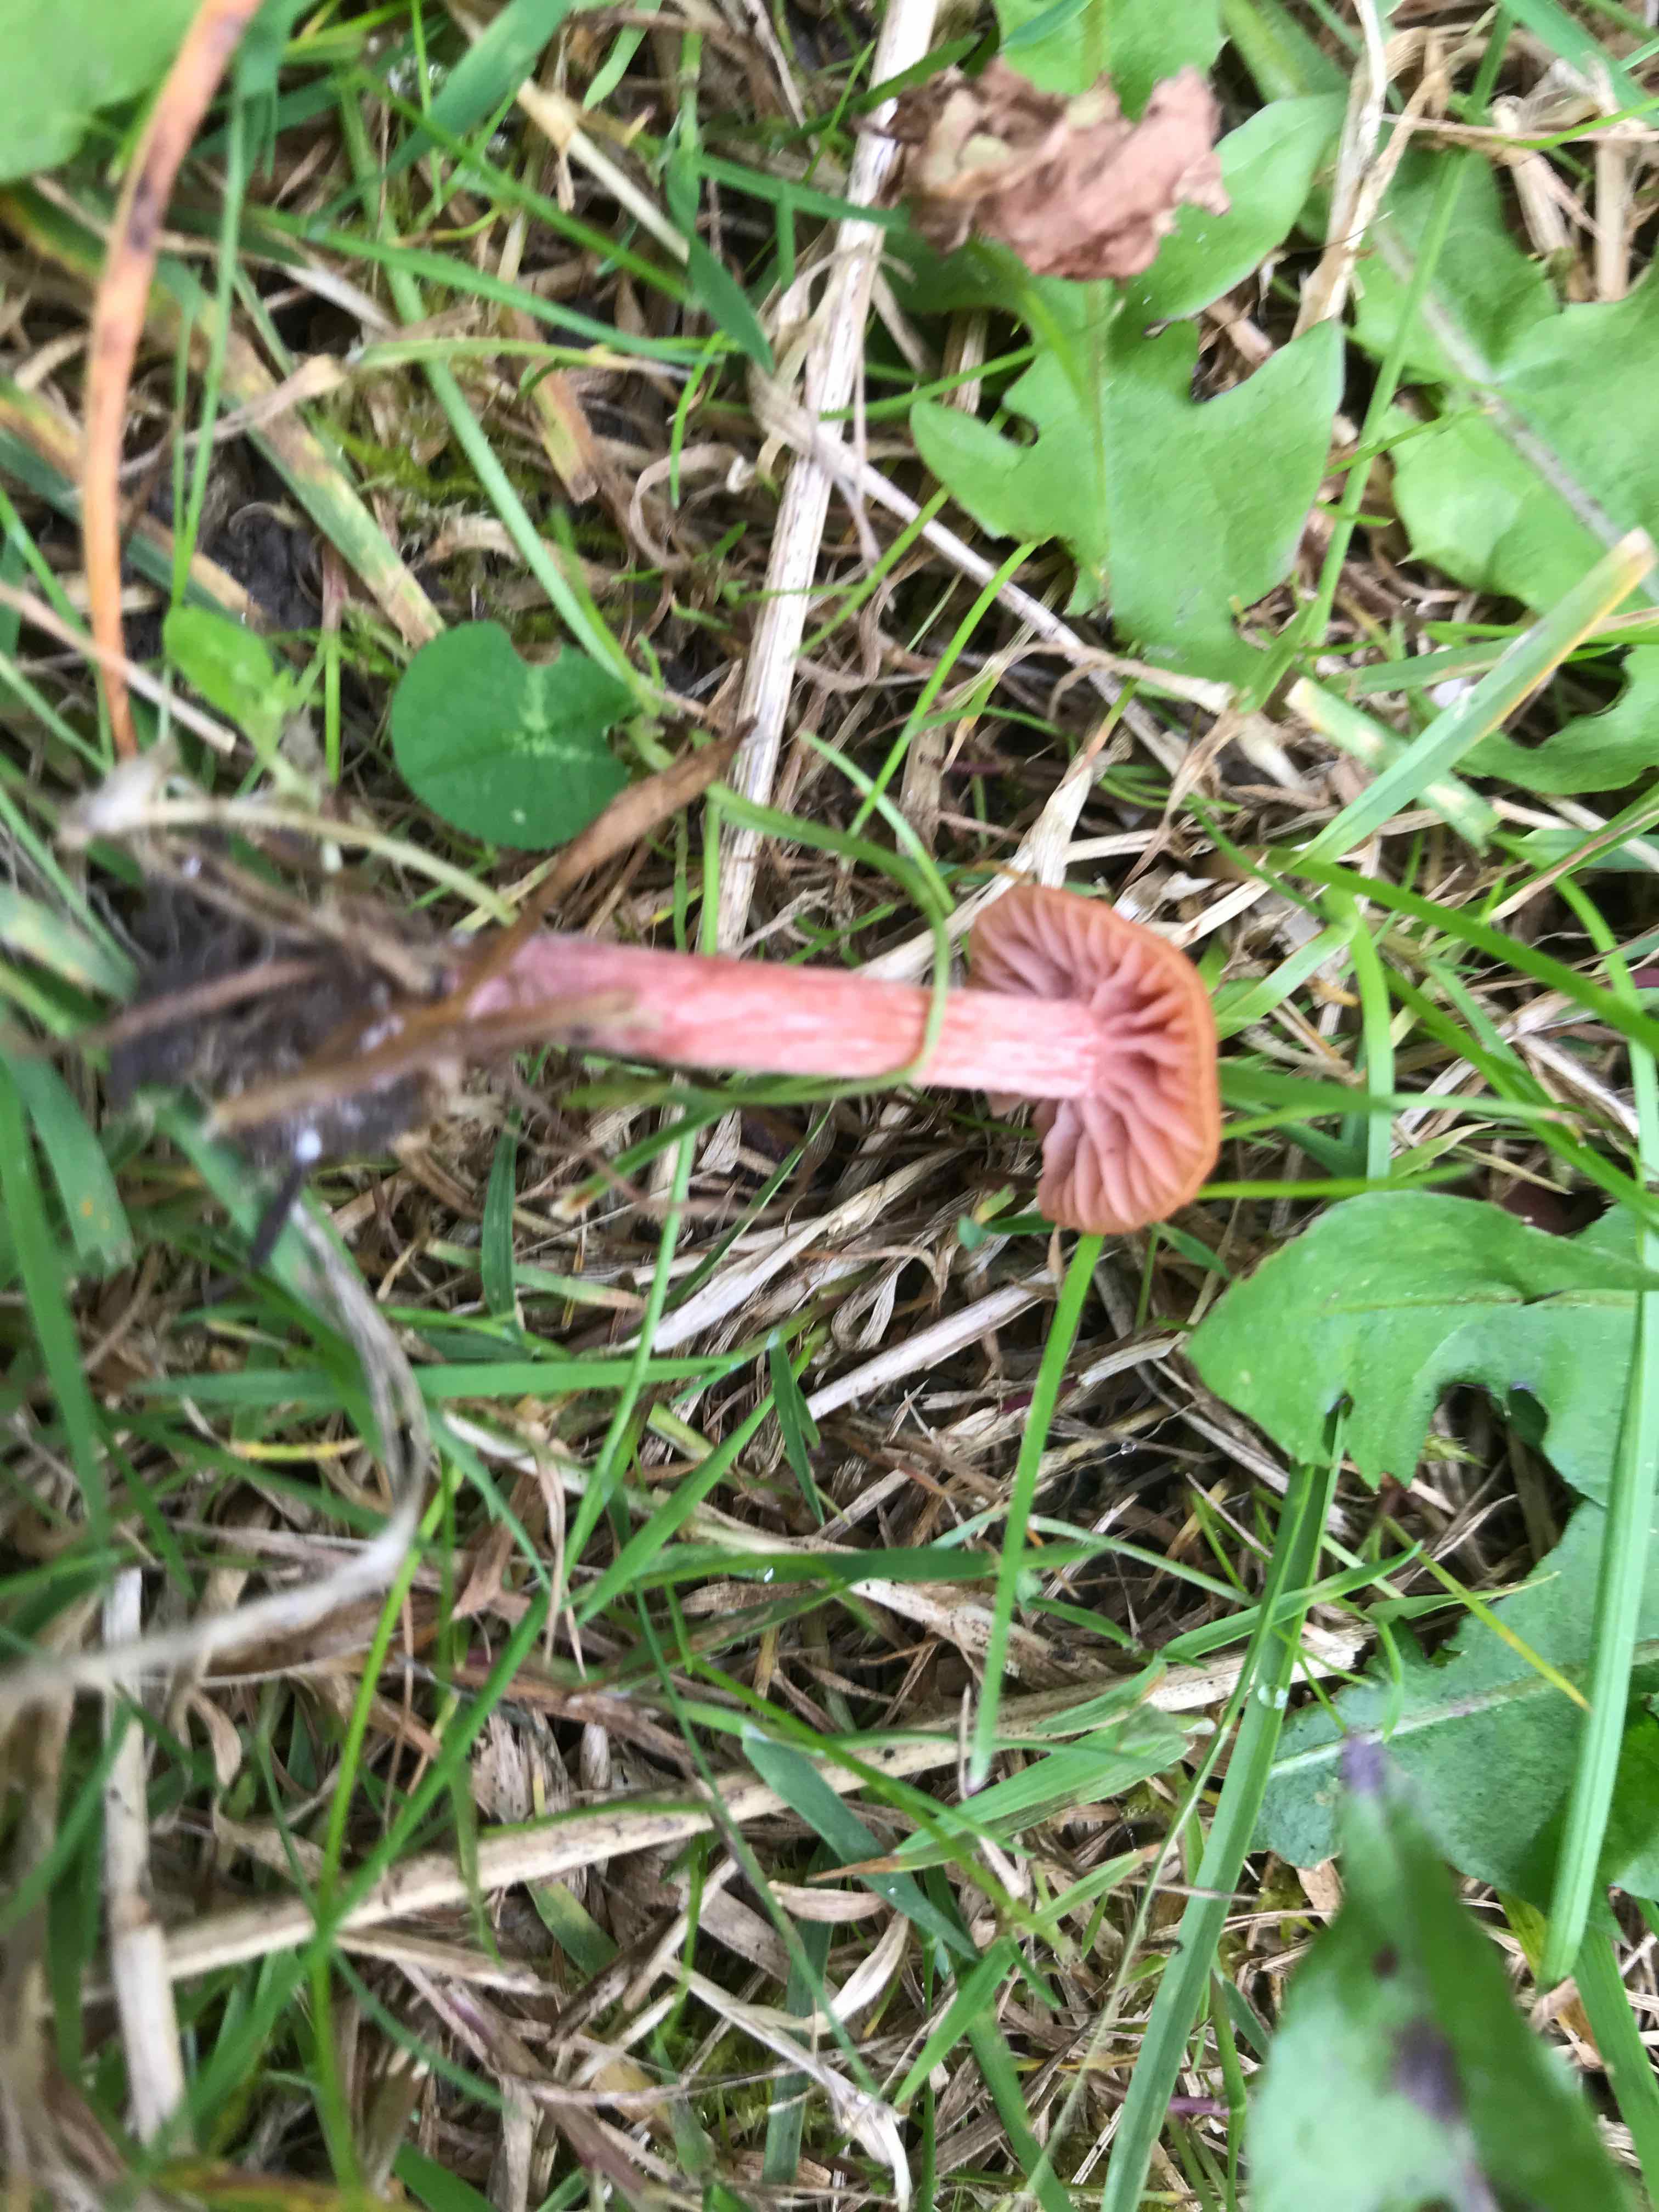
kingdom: Fungi
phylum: Basidiomycota
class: Agaricomycetes
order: Agaricales
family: Hydnangiaceae
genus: Laccaria
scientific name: Laccaria laccata
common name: rød ametysthat
